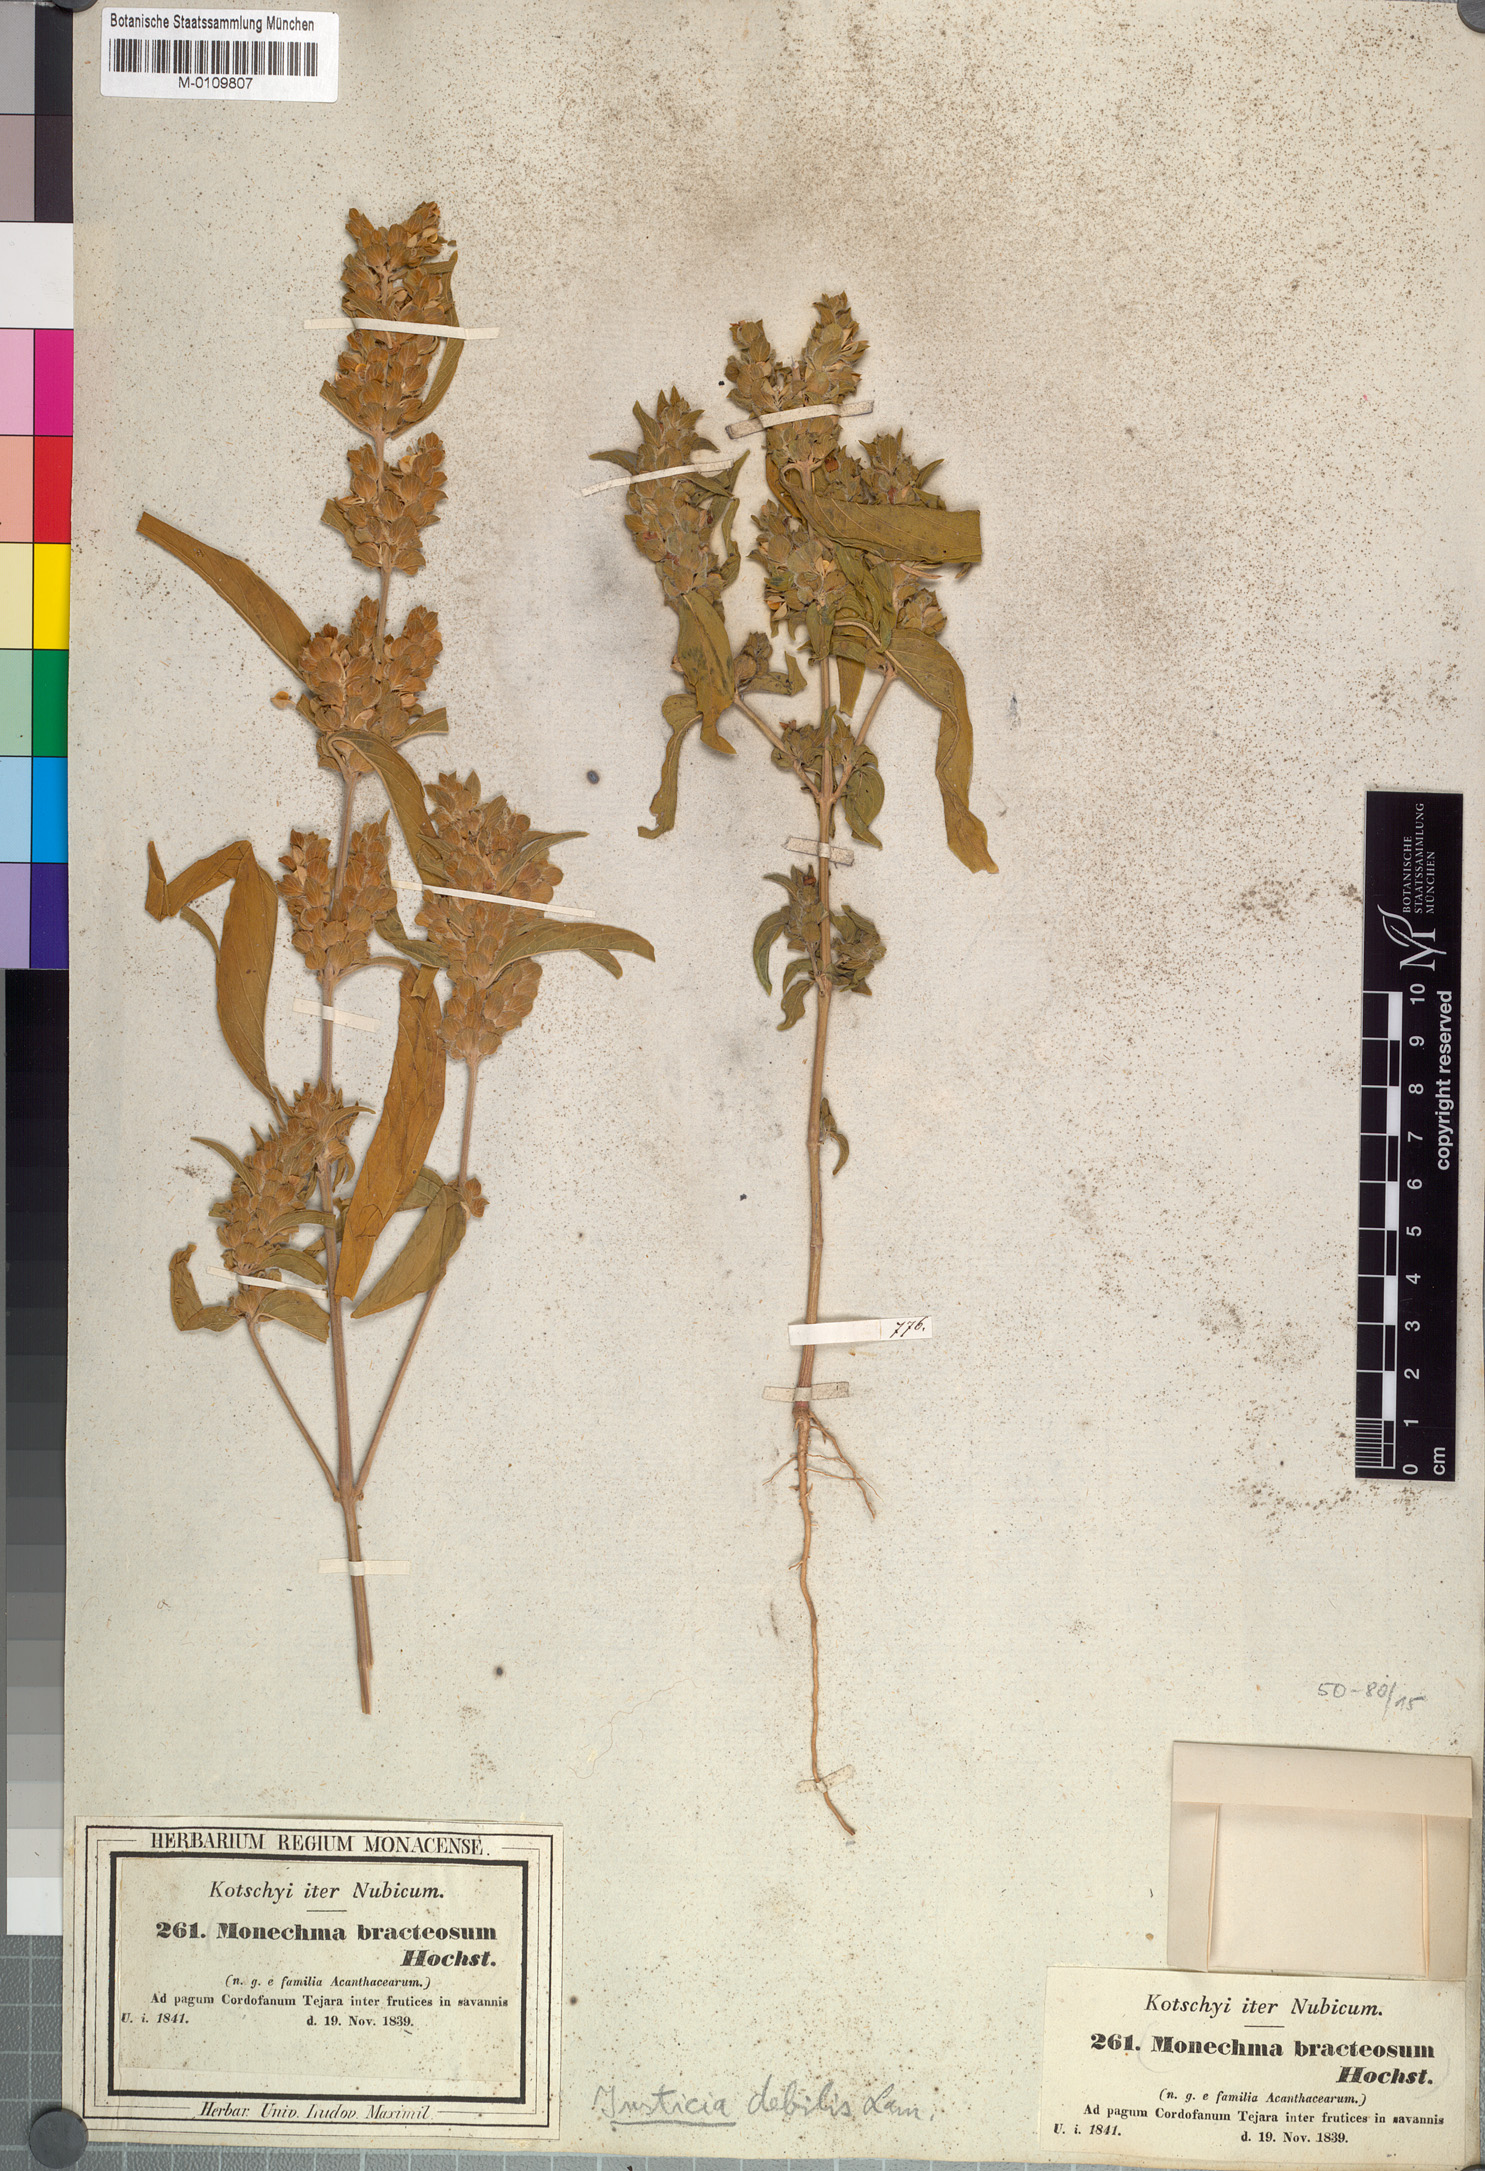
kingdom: Plantae
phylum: Tracheophyta
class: Magnoliopsida
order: Lamiales
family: Acanthaceae
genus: Monechma
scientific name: Monechma debile
